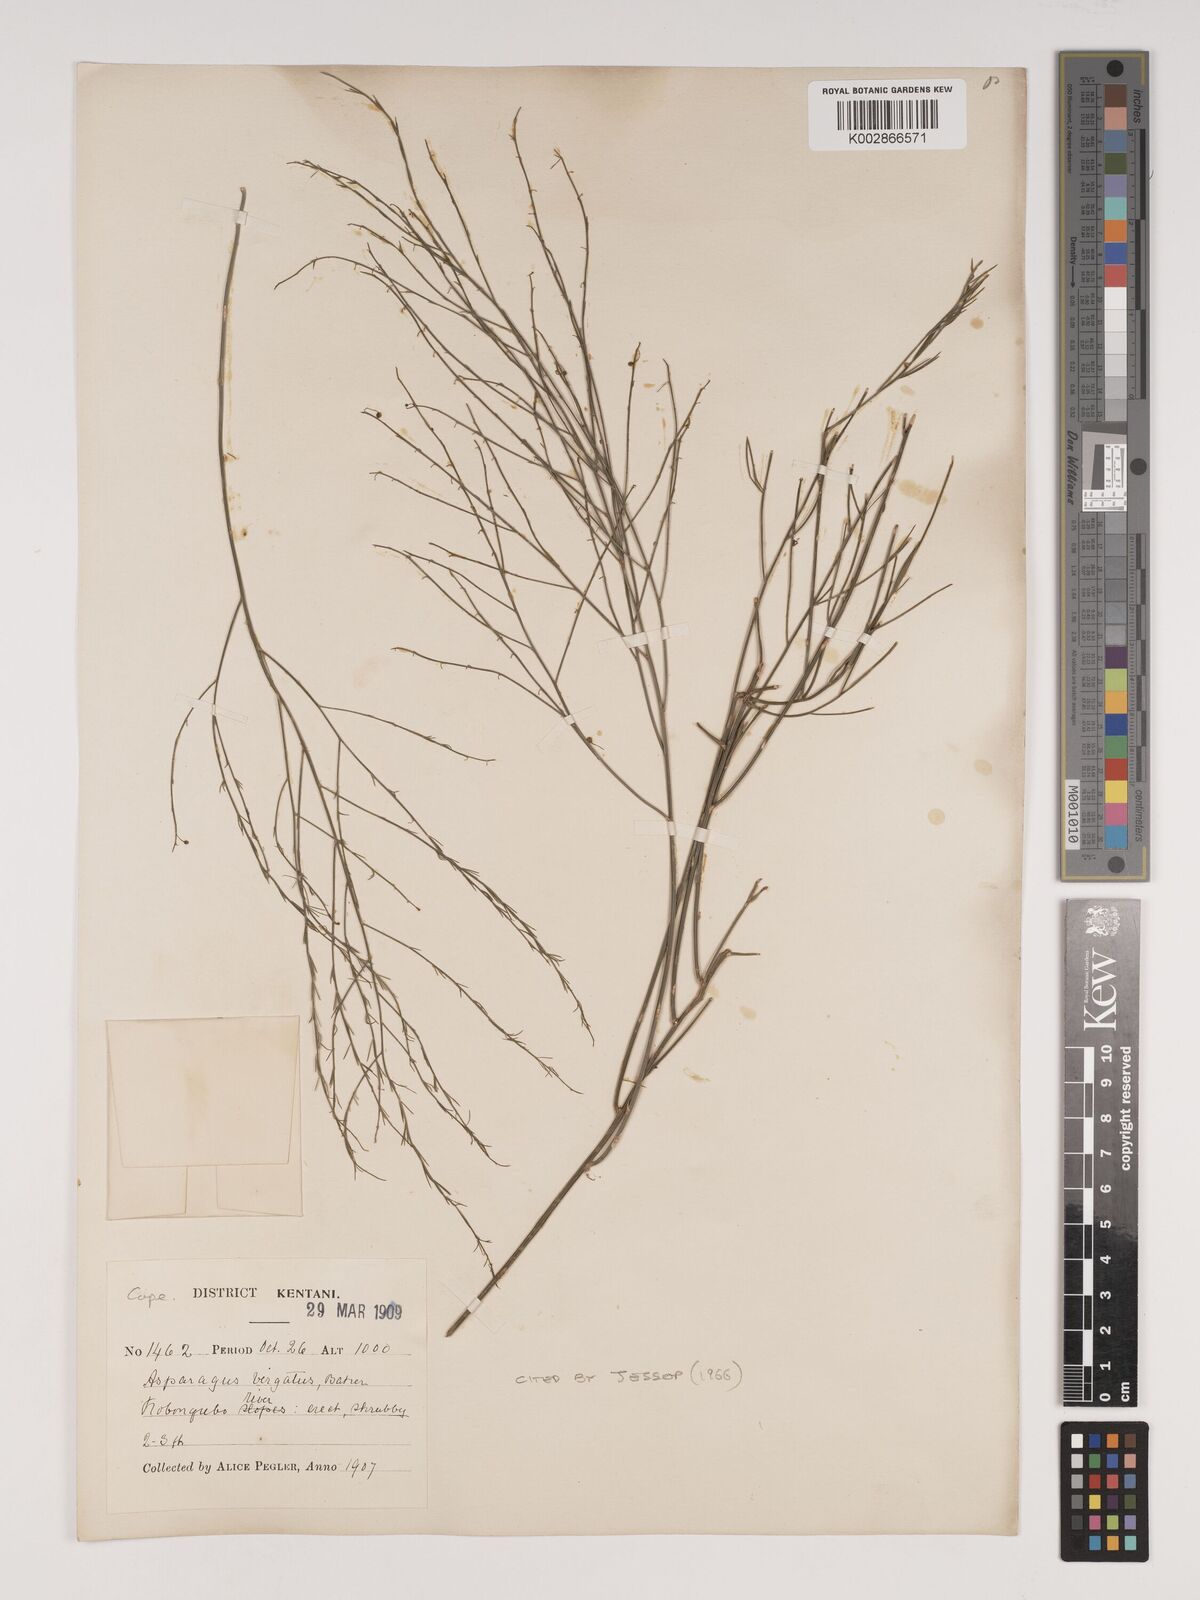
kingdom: Plantae
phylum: Tracheophyta
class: Liliopsida
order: Asparagales
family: Asparagaceae
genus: Asparagus
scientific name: Asparagus virgatus
